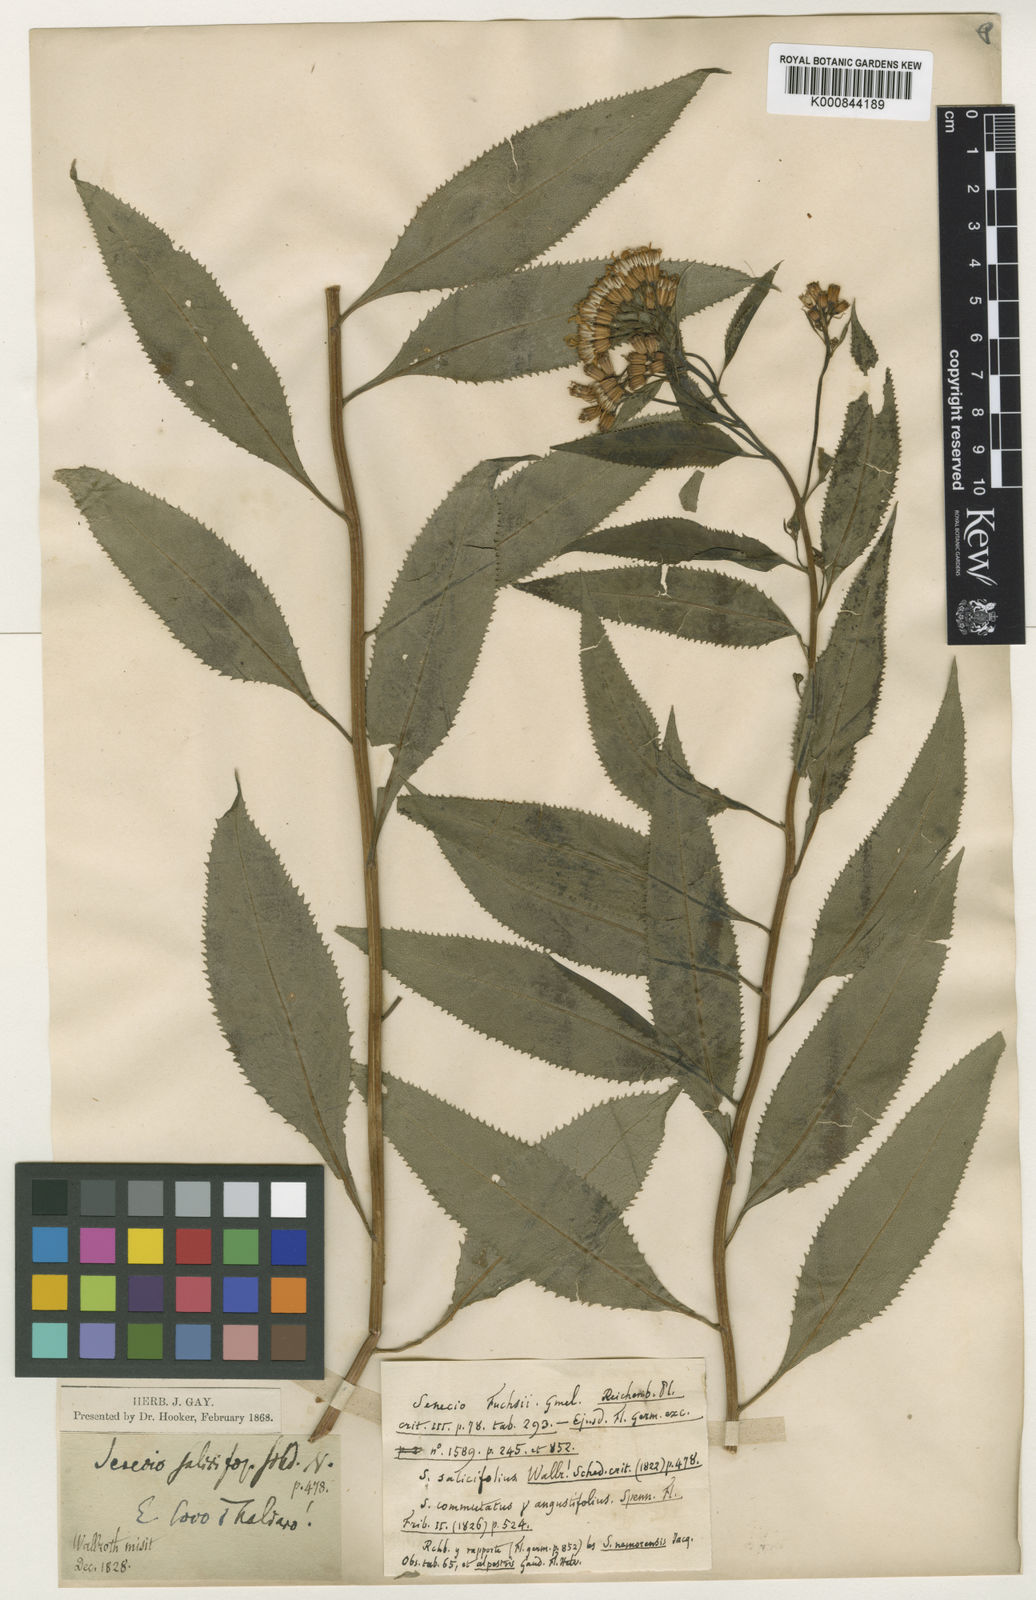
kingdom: Plantae
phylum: Tracheophyta
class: Magnoliopsida
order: Asterales
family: Asteraceae
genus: Senecio
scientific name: Senecio ovatus
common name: Wood ragwort
